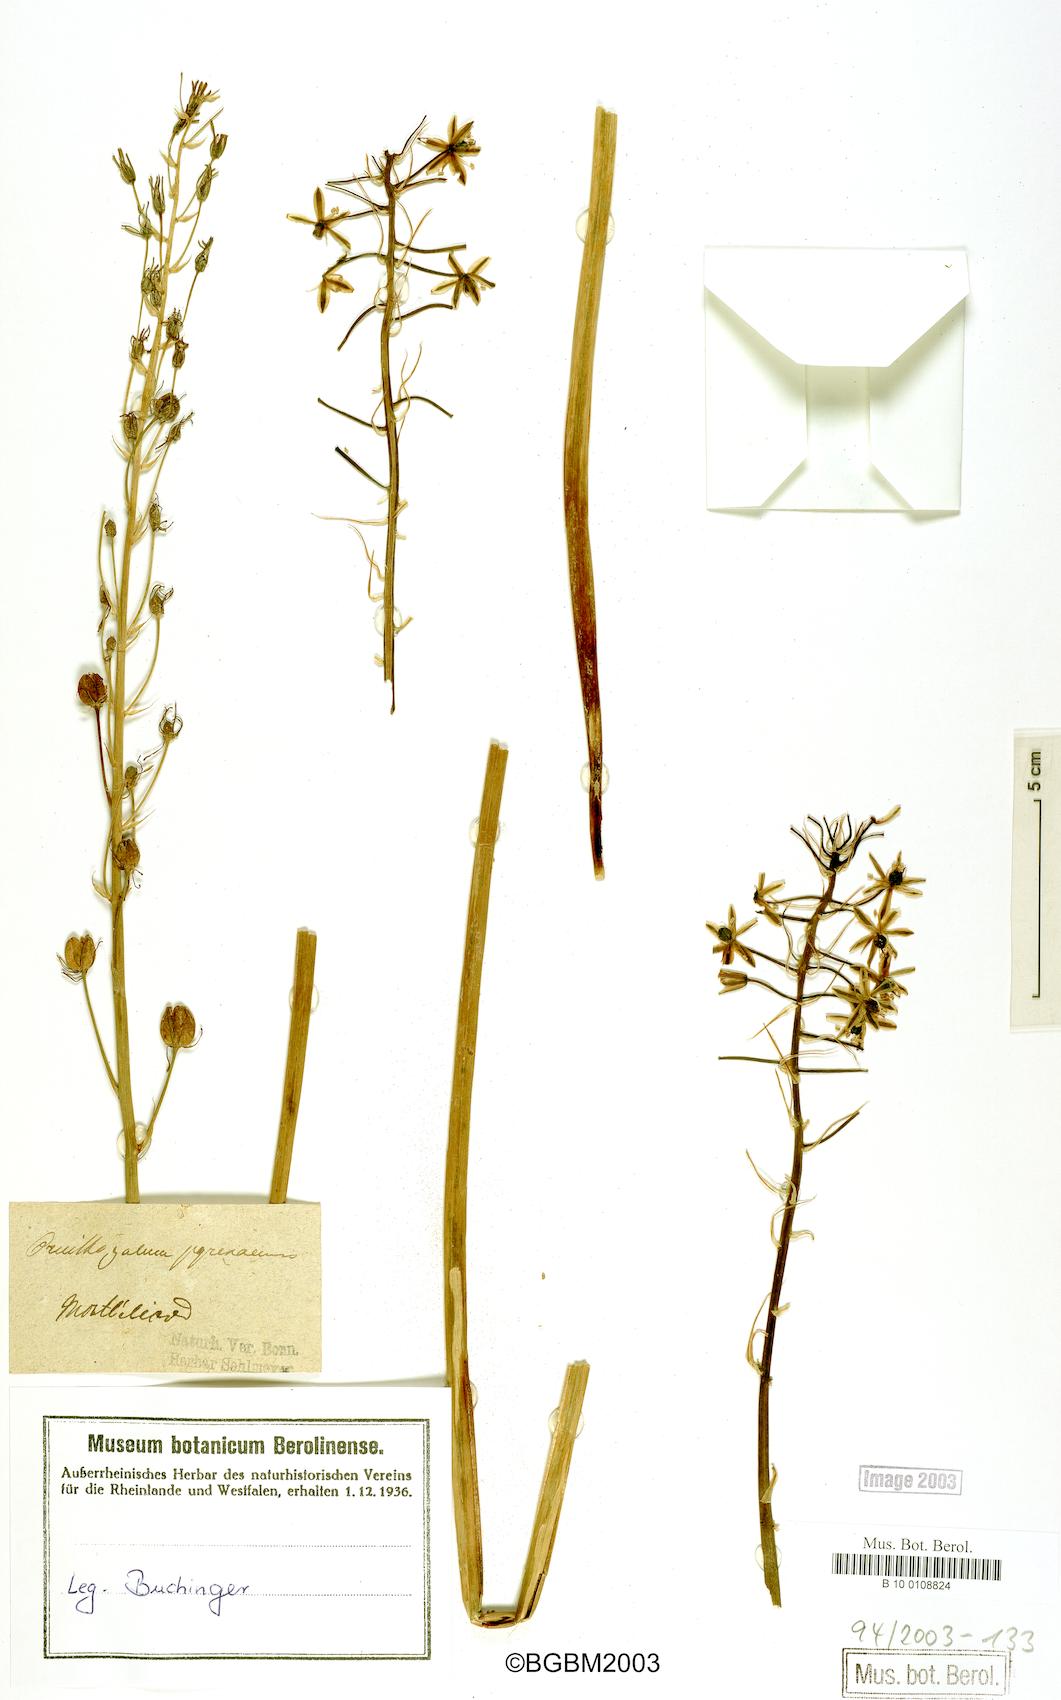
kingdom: Plantae
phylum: Tracheophyta
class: Liliopsida
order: Asparagales
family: Asparagaceae
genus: Ornithogalum
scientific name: Ornithogalum pyrenaicum
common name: Spiked star-of-bethlehem
